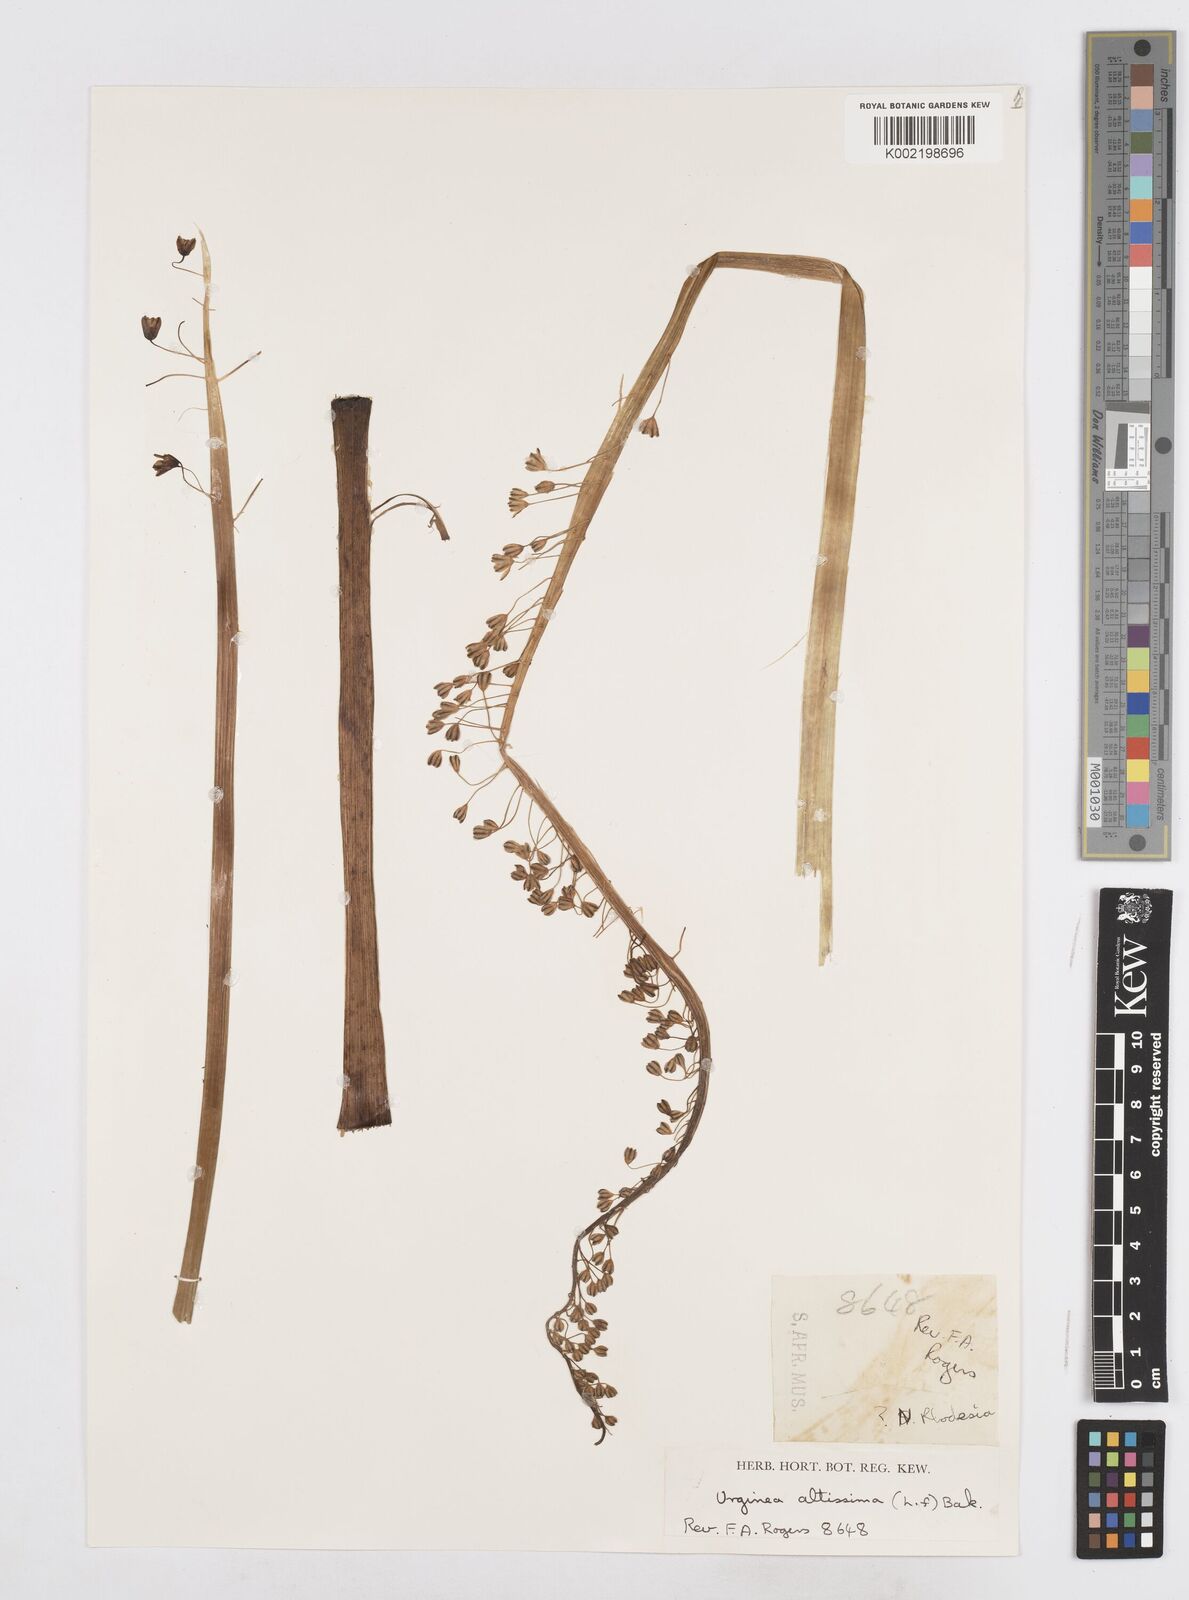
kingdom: Plantae
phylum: Tracheophyta
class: Liliopsida
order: Asparagales
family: Asparagaceae
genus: Drimia
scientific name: Drimia
